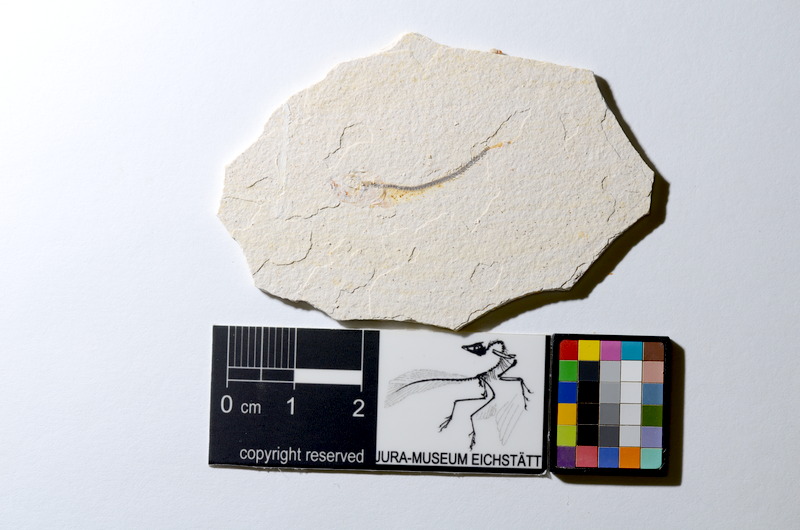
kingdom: Animalia
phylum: Chordata
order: Salmoniformes
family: Orthogonikleithridae
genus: Orthogonikleithrus
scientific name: Orthogonikleithrus hoelli
